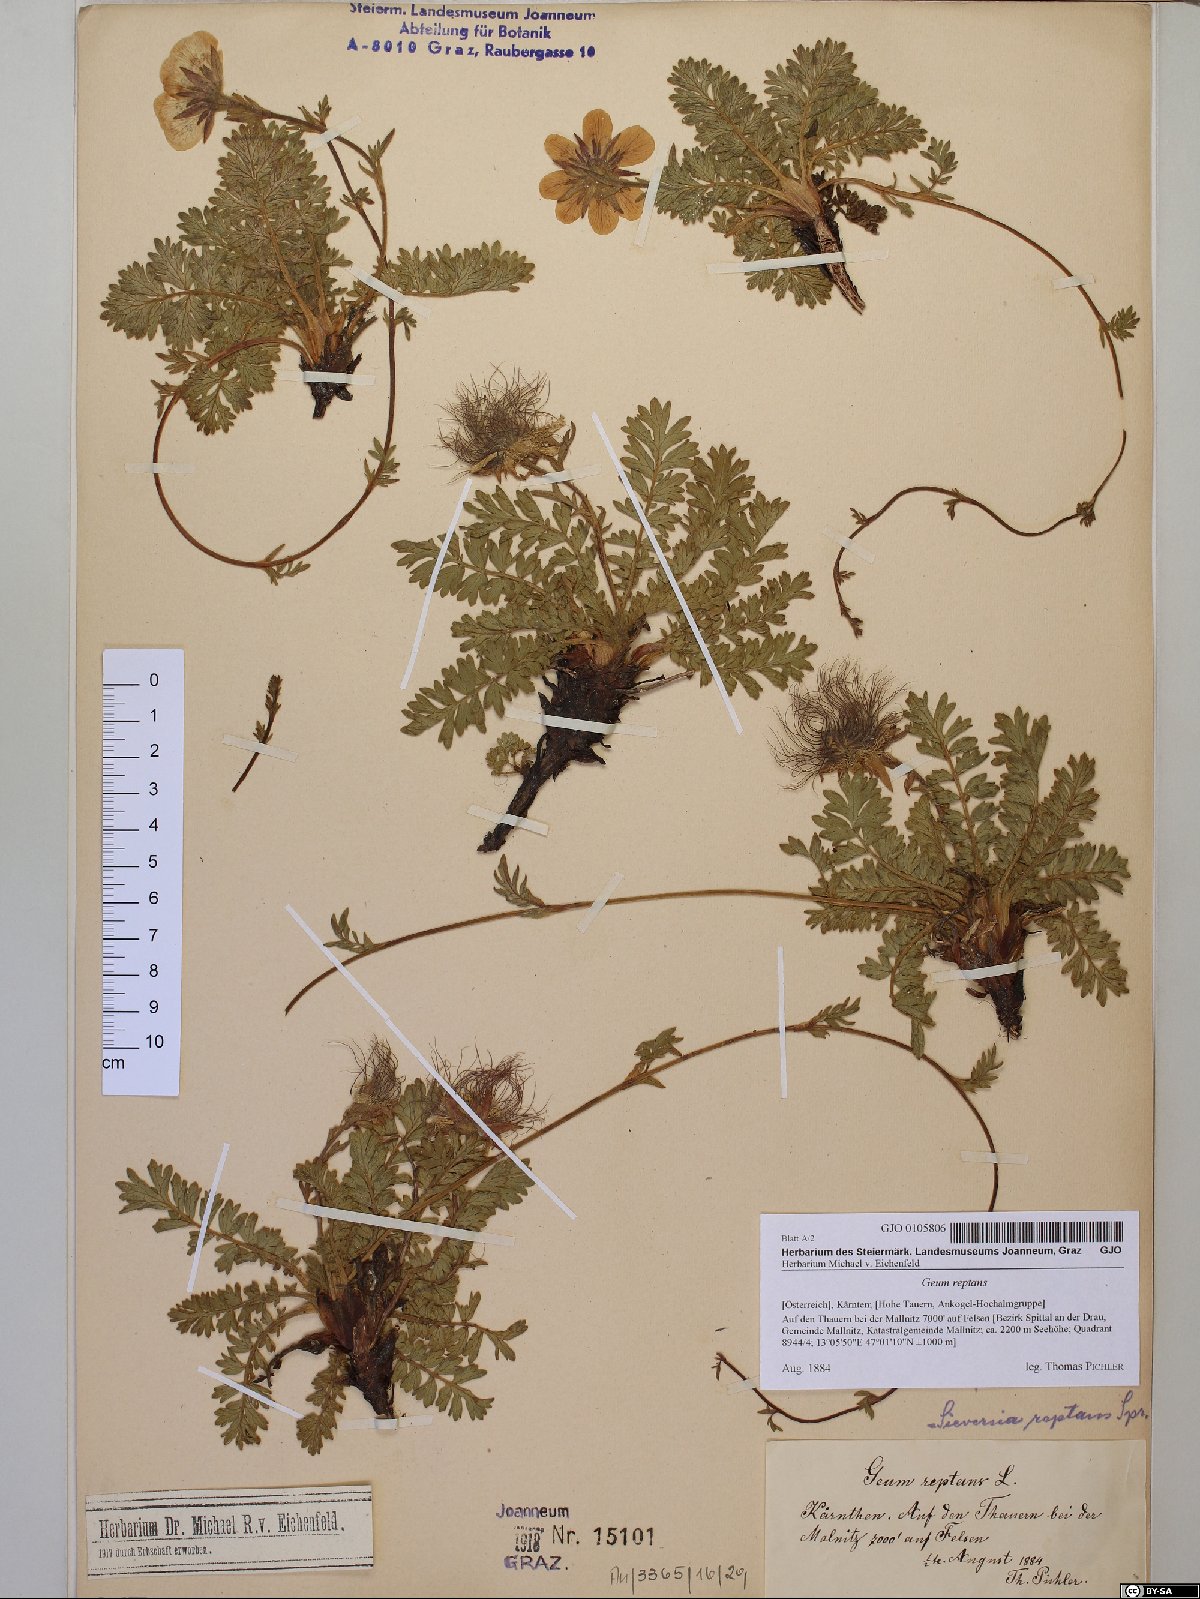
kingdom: Plantae
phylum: Tracheophyta
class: Magnoliopsida
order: Rosales
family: Rosaceae
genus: Geum
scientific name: Geum reptans
